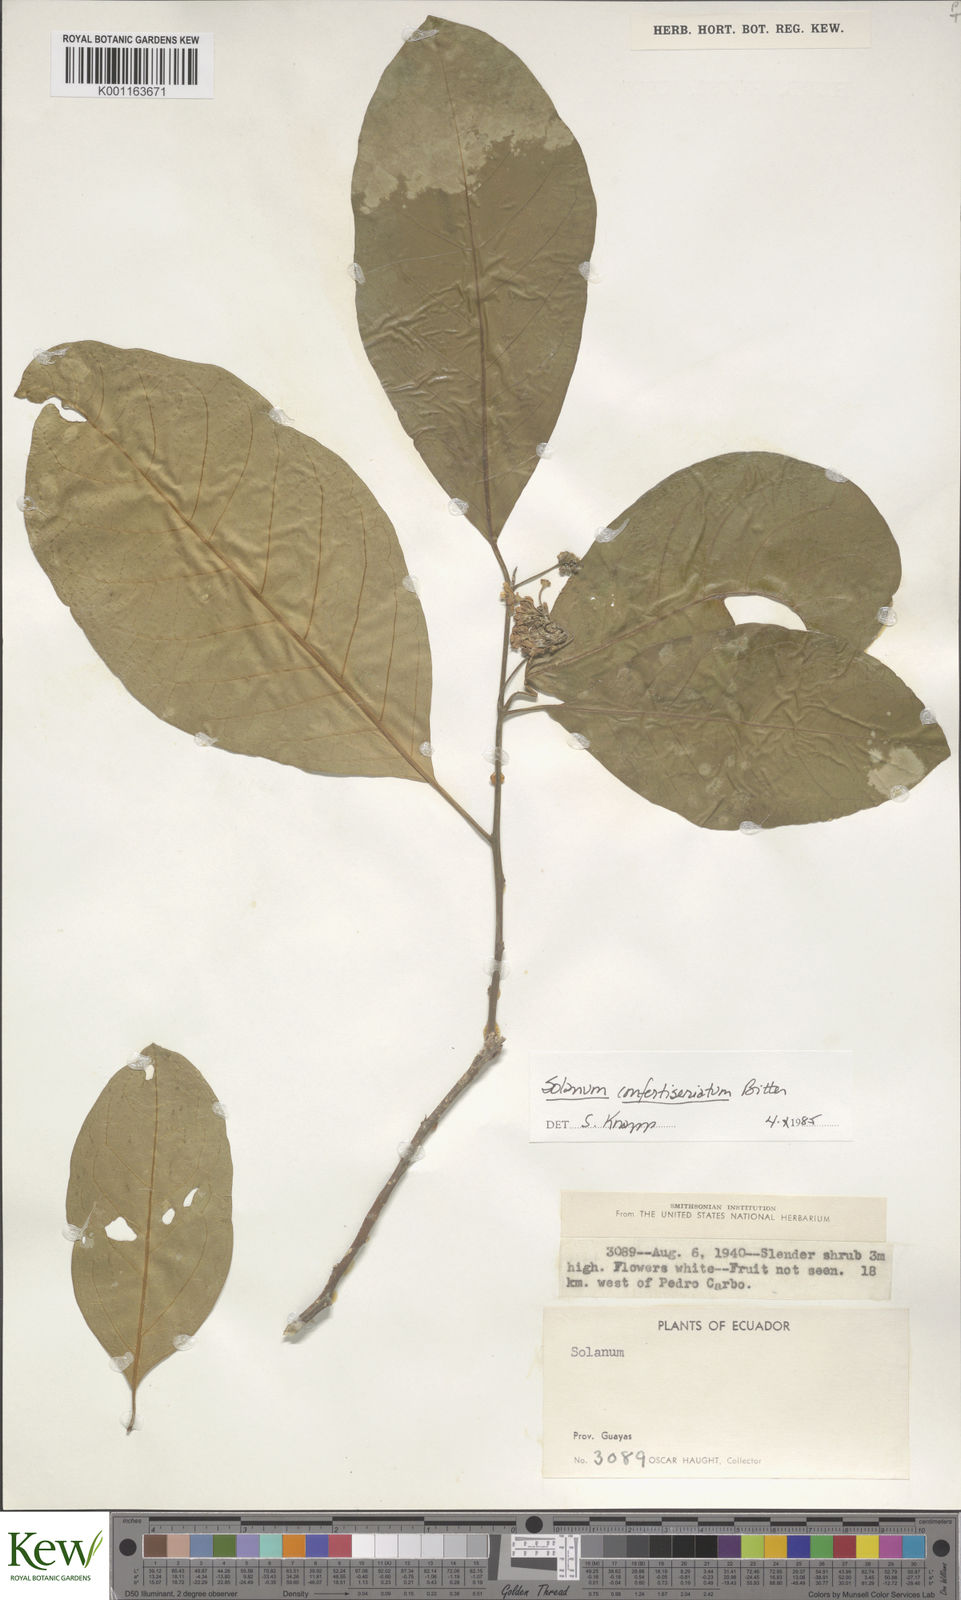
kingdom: Plantae
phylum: Tracheophyta
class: Magnoliopsida
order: Solanales
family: Solanaceae
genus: Solanum
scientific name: Solanum confertiseriatum
